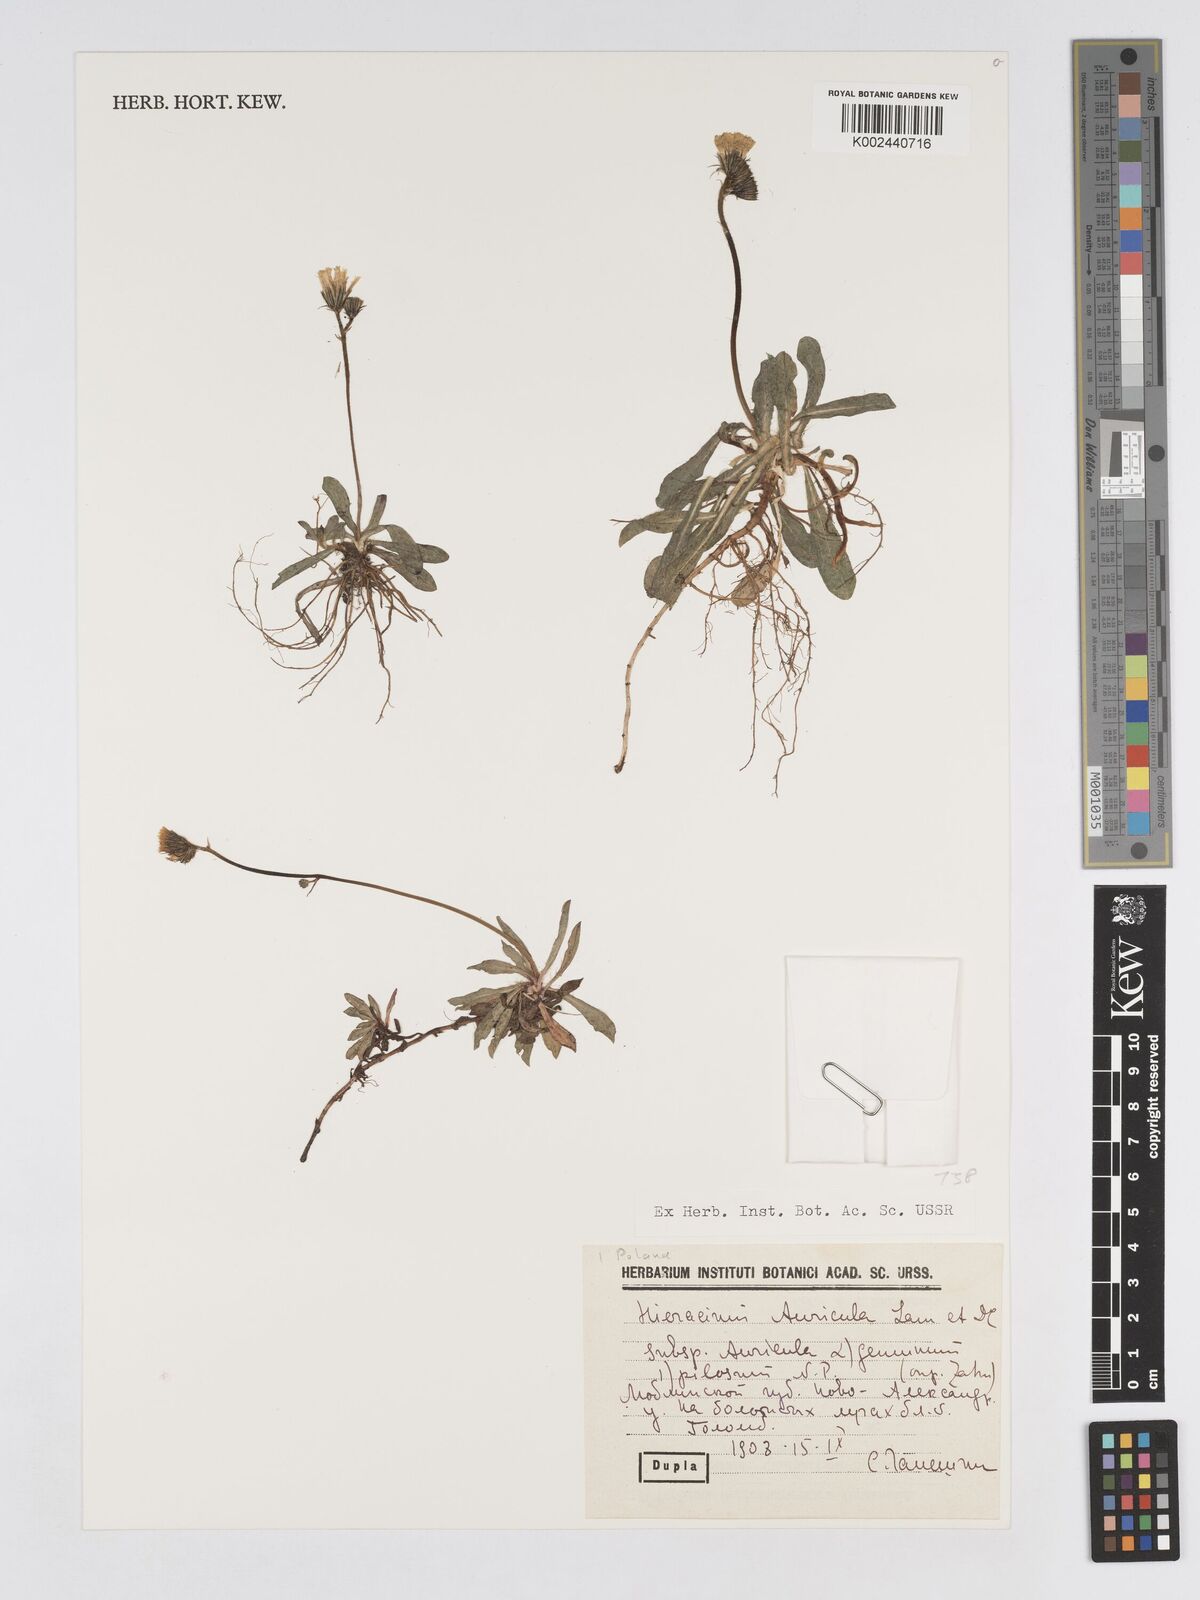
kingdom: Plantae
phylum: Tracheophyta
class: Magnoliopsida
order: Asterales
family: Asteraceae
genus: Pilosella
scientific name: Pilosella floribunda
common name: Glaucous hawkweed
